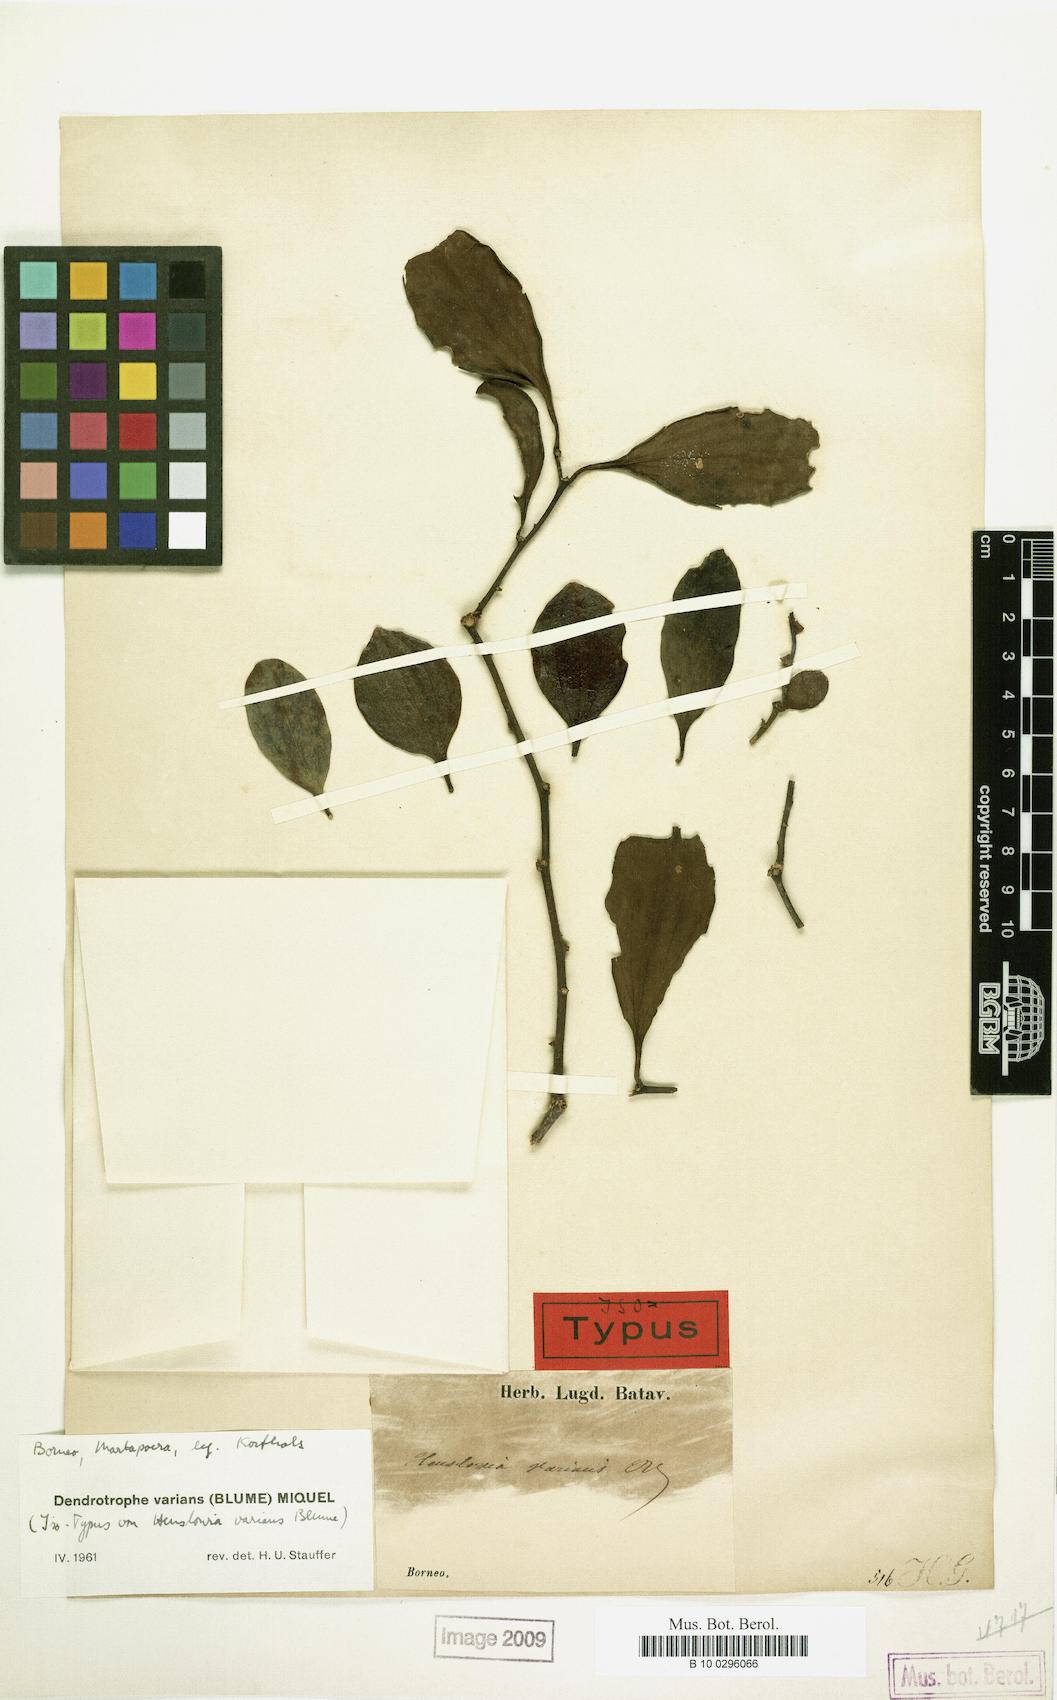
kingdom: Plantae
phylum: Tracheophyta
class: Magnoliopsida
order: Santalales
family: Amphorogynaceae
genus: Dendrotrophe
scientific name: Dendrotrophe varians
